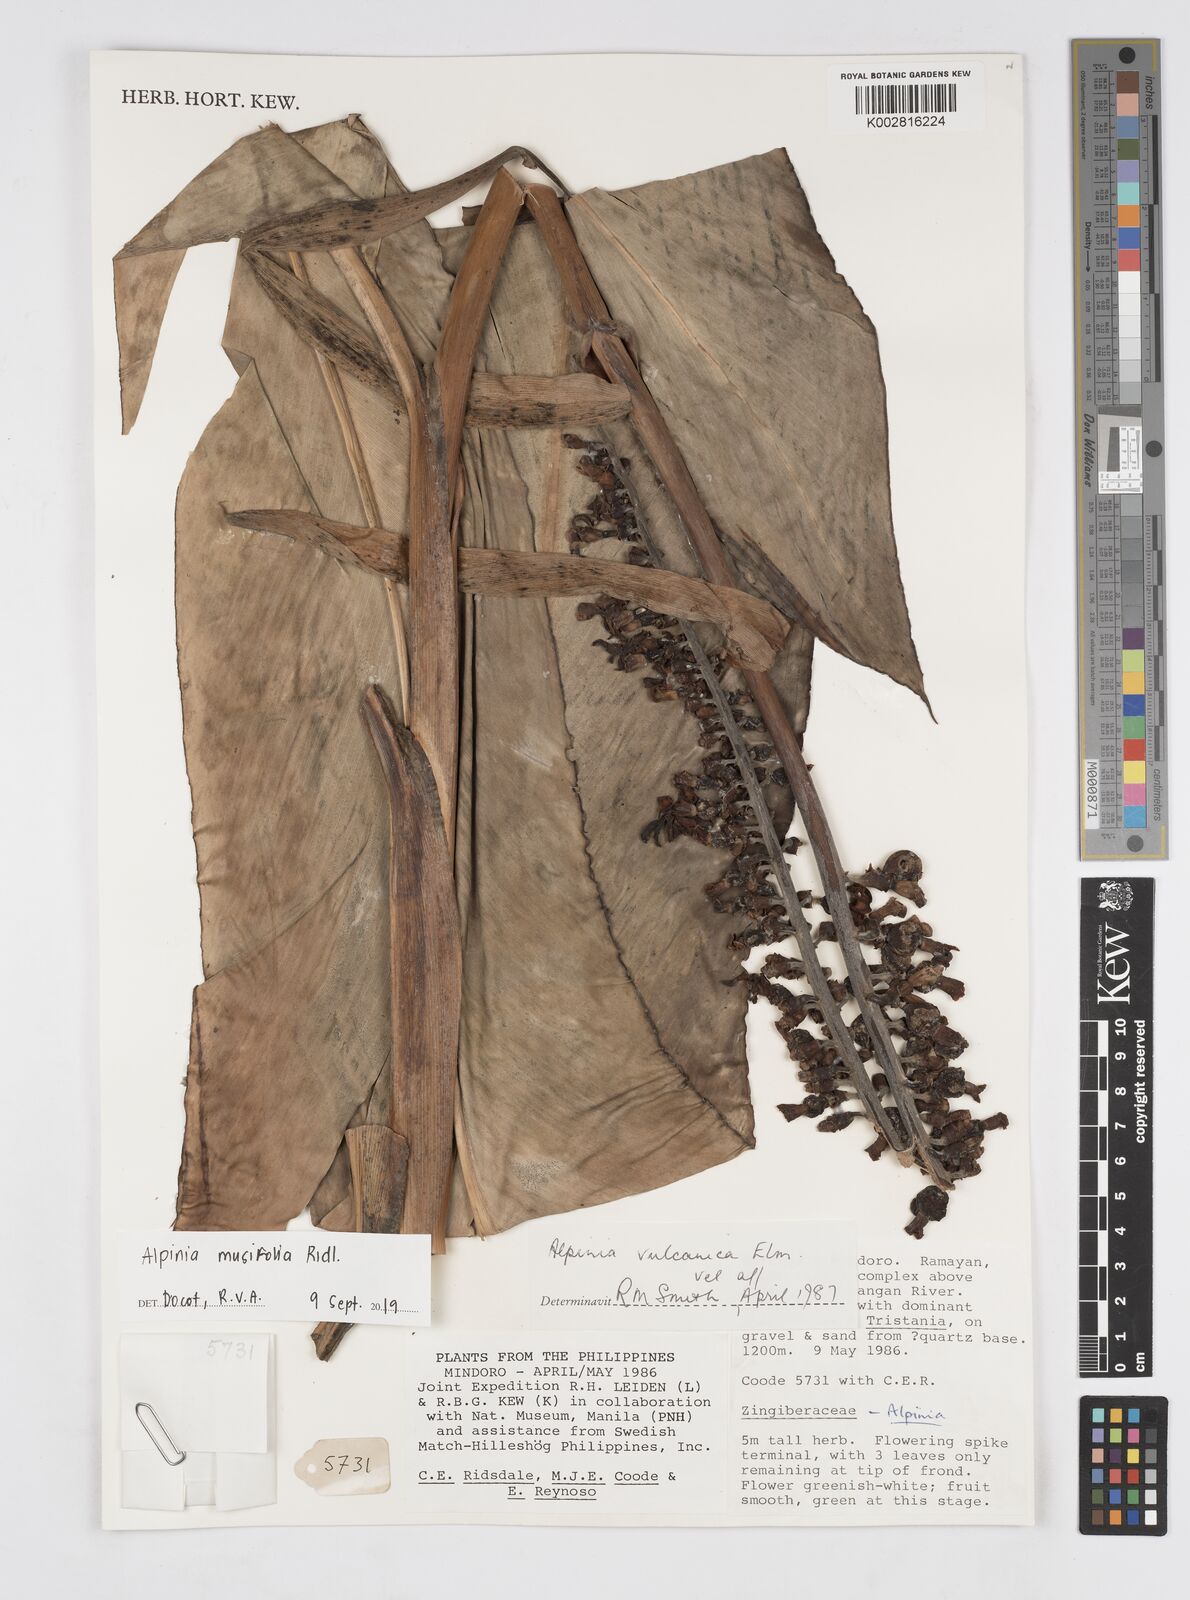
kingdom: Plantae
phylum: Tracheophyta
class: Liliopsida
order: Zingiberales
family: Zingiberaceae
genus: Alpinia
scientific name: Alpinia musifolia
